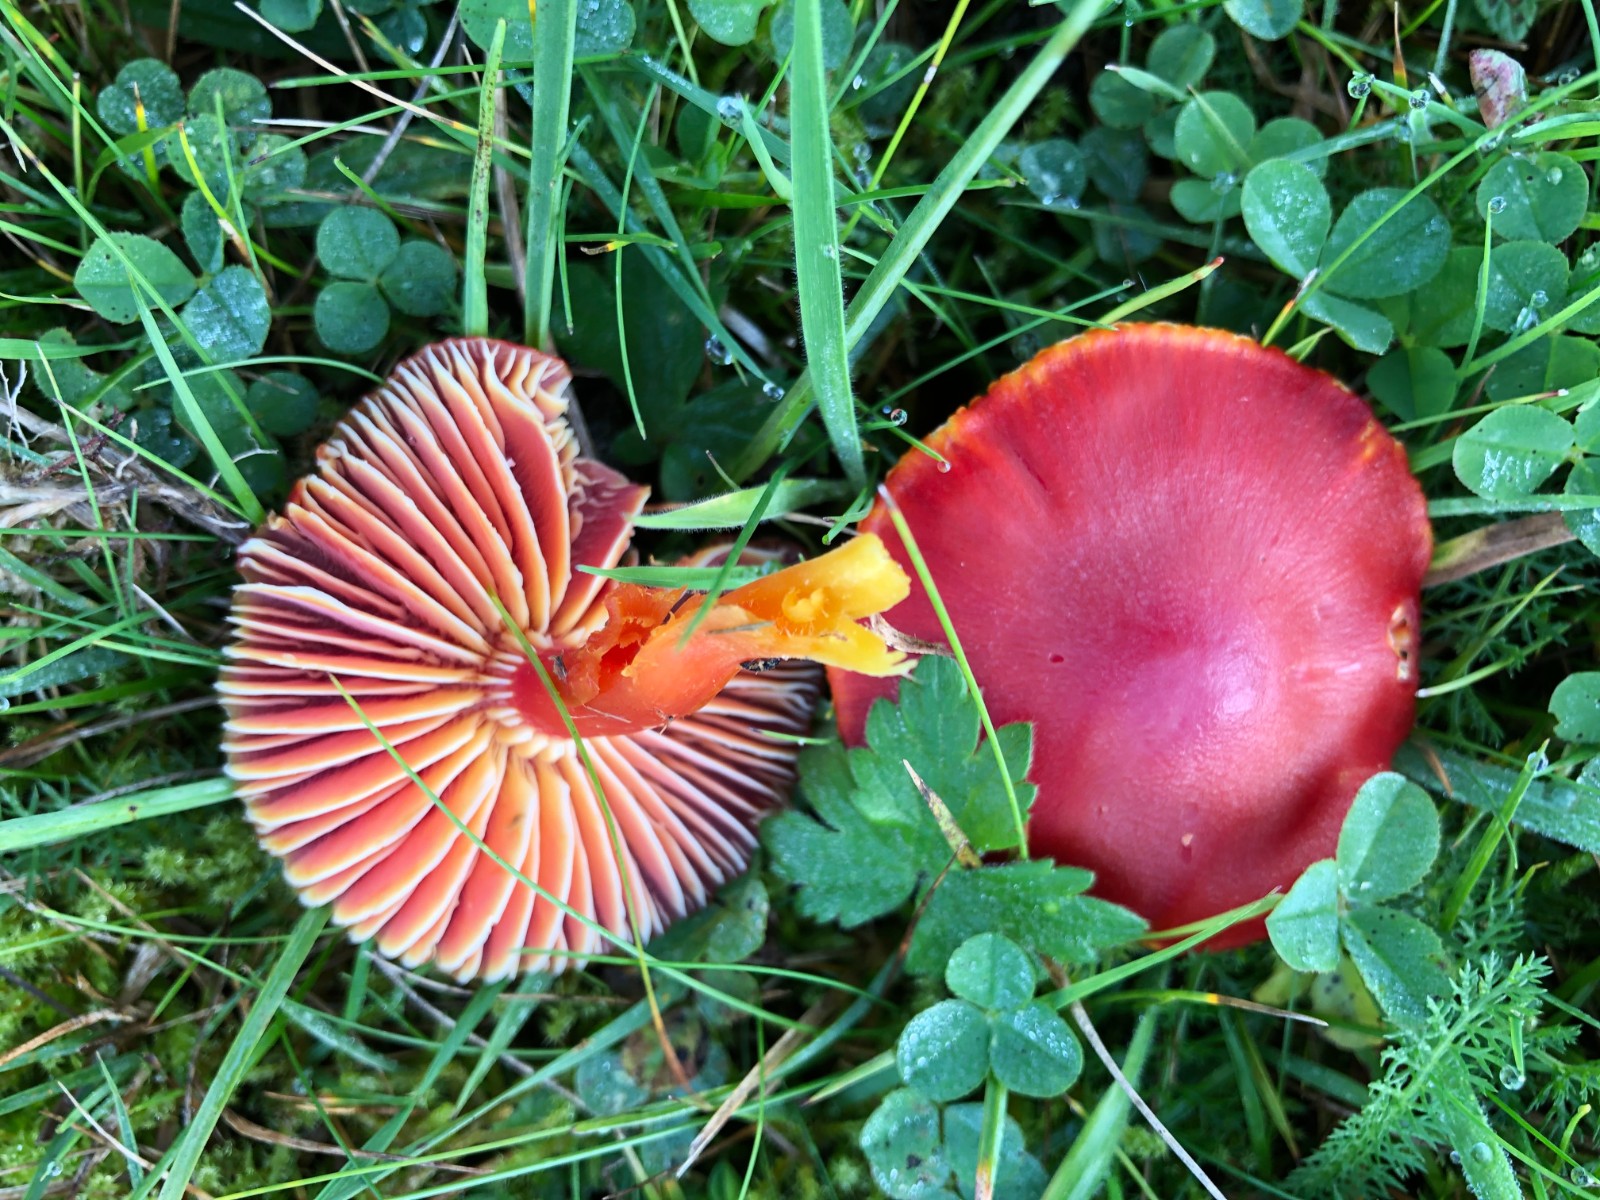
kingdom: Fungi
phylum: Basidiomycota
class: Agaricomycetes
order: Agaricales
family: Hygrophoraceae
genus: Hygrocybe
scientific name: Hygrocybe coccinea
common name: cinnober-vokshat
